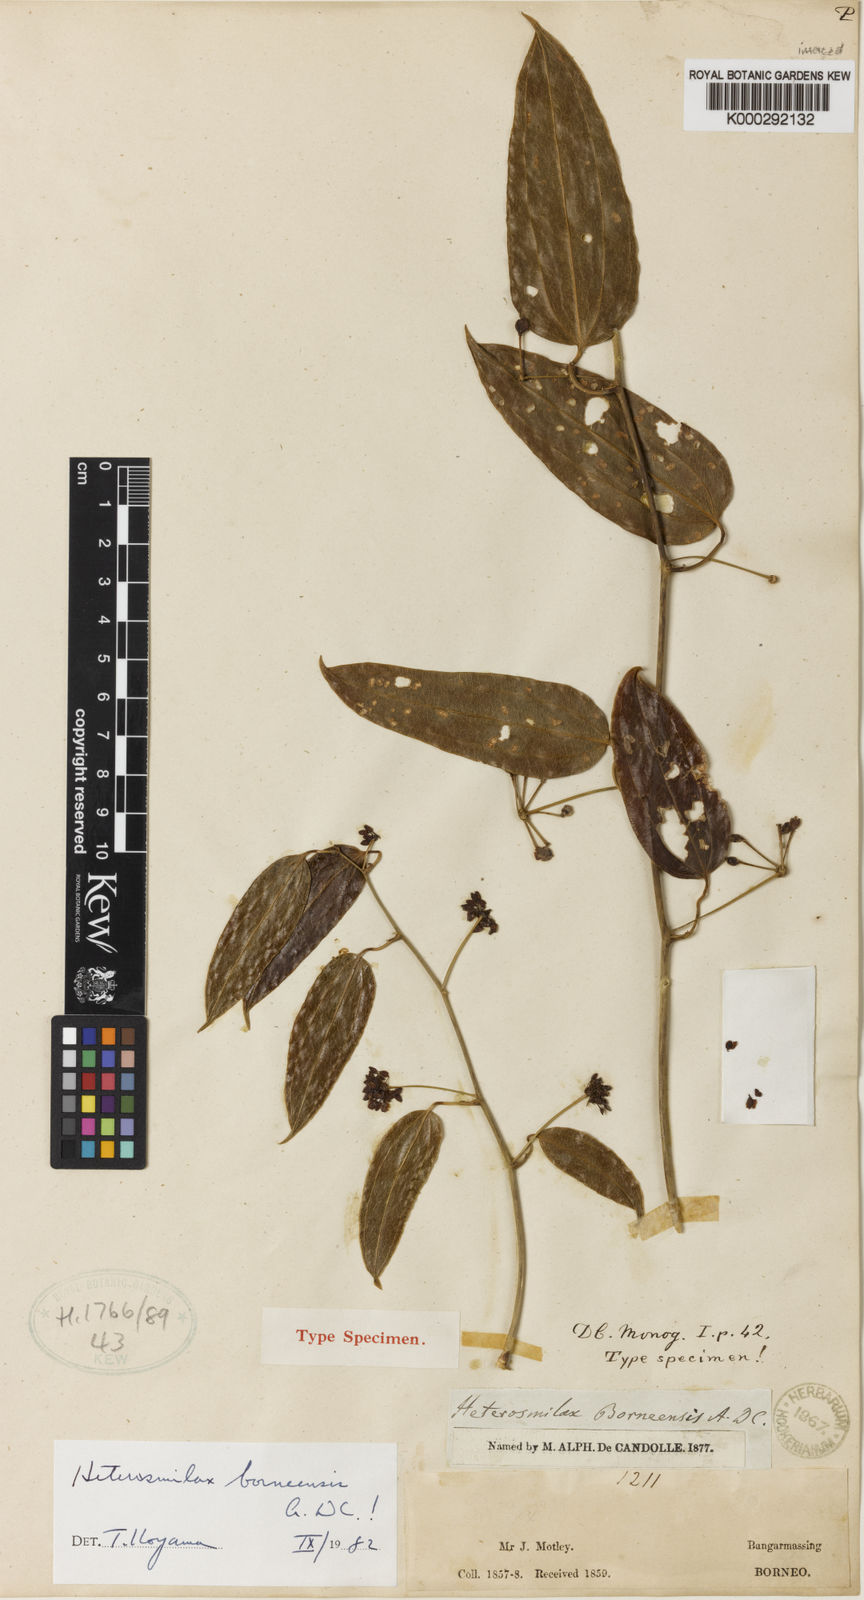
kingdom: Plantae
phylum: Tracheophyta
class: Liliopsida
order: Liliales
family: Smilacaceae
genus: Smilax
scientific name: Smilax sumatrensis
